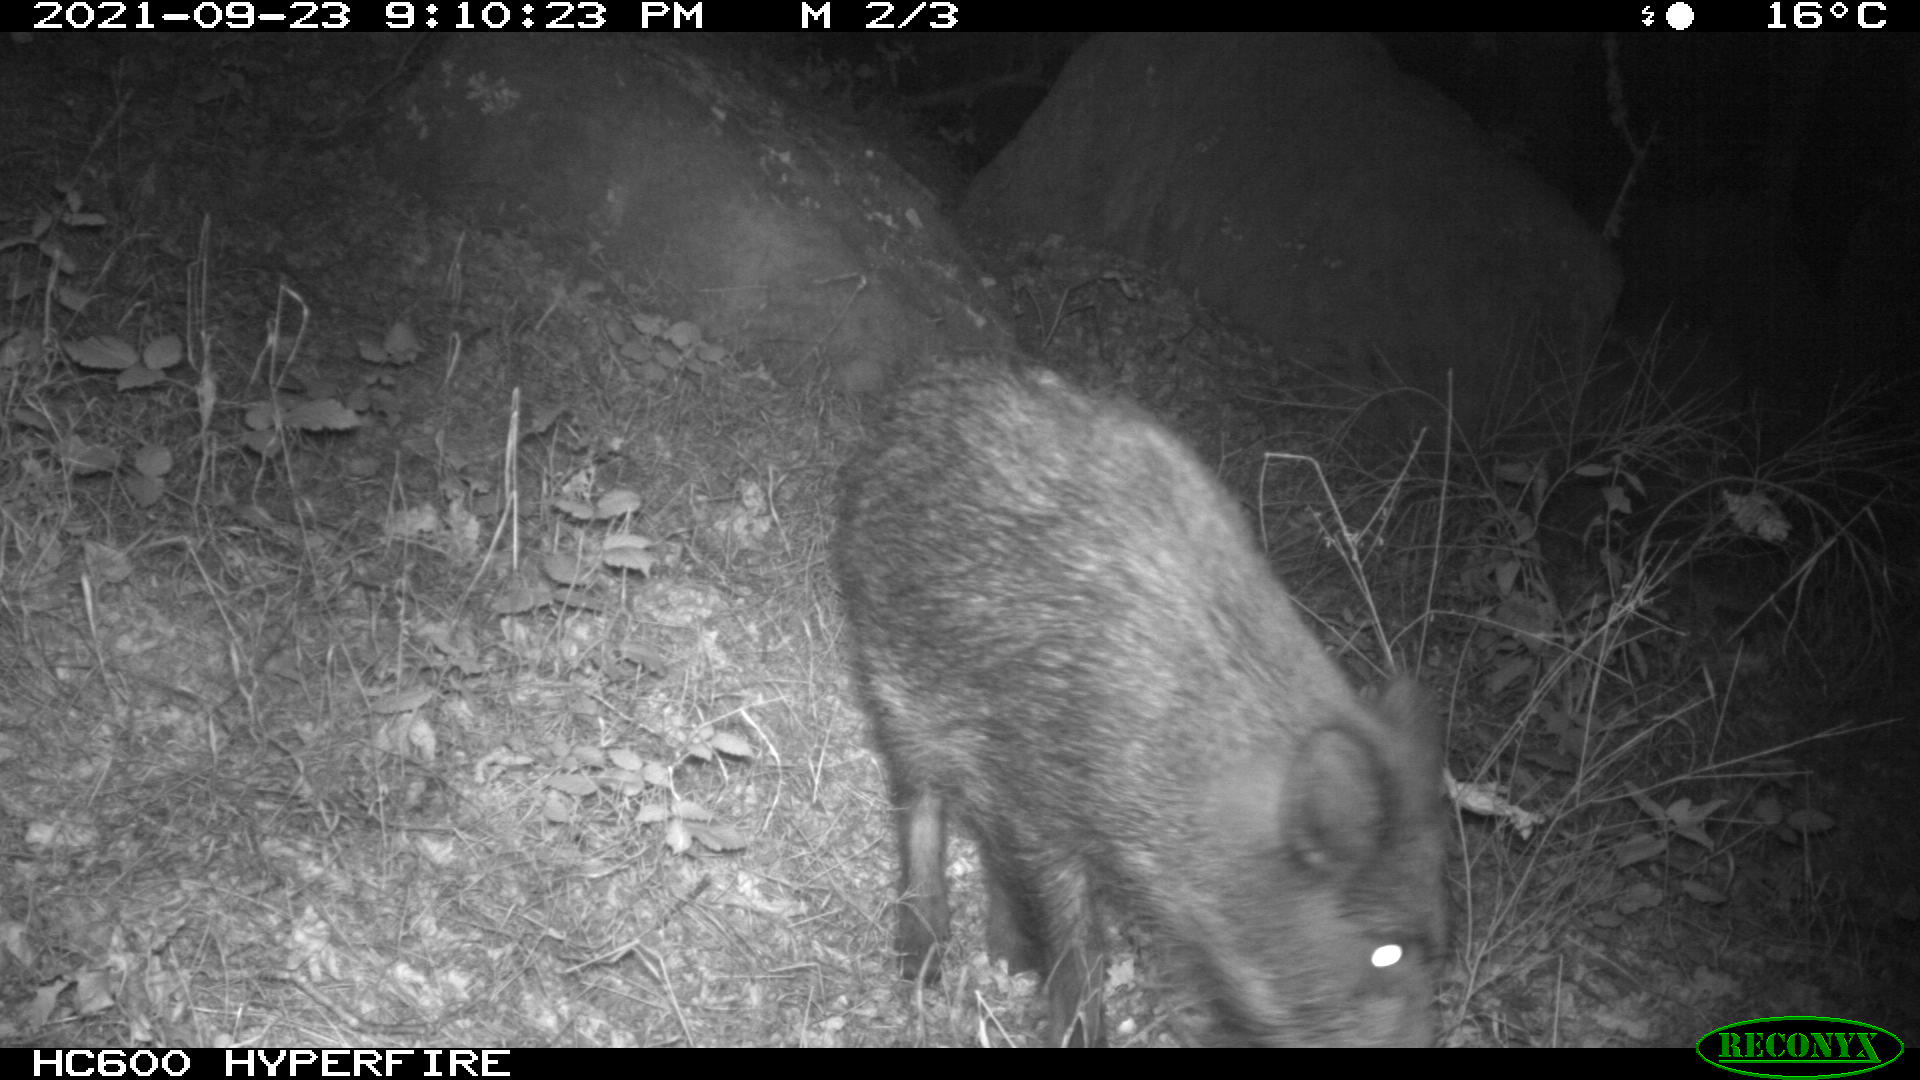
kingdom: Animalia
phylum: Chordata
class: Mammalia
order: Artiodactyla
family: Suidae
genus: Sus
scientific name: Sus scrofa
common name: Wild boar
